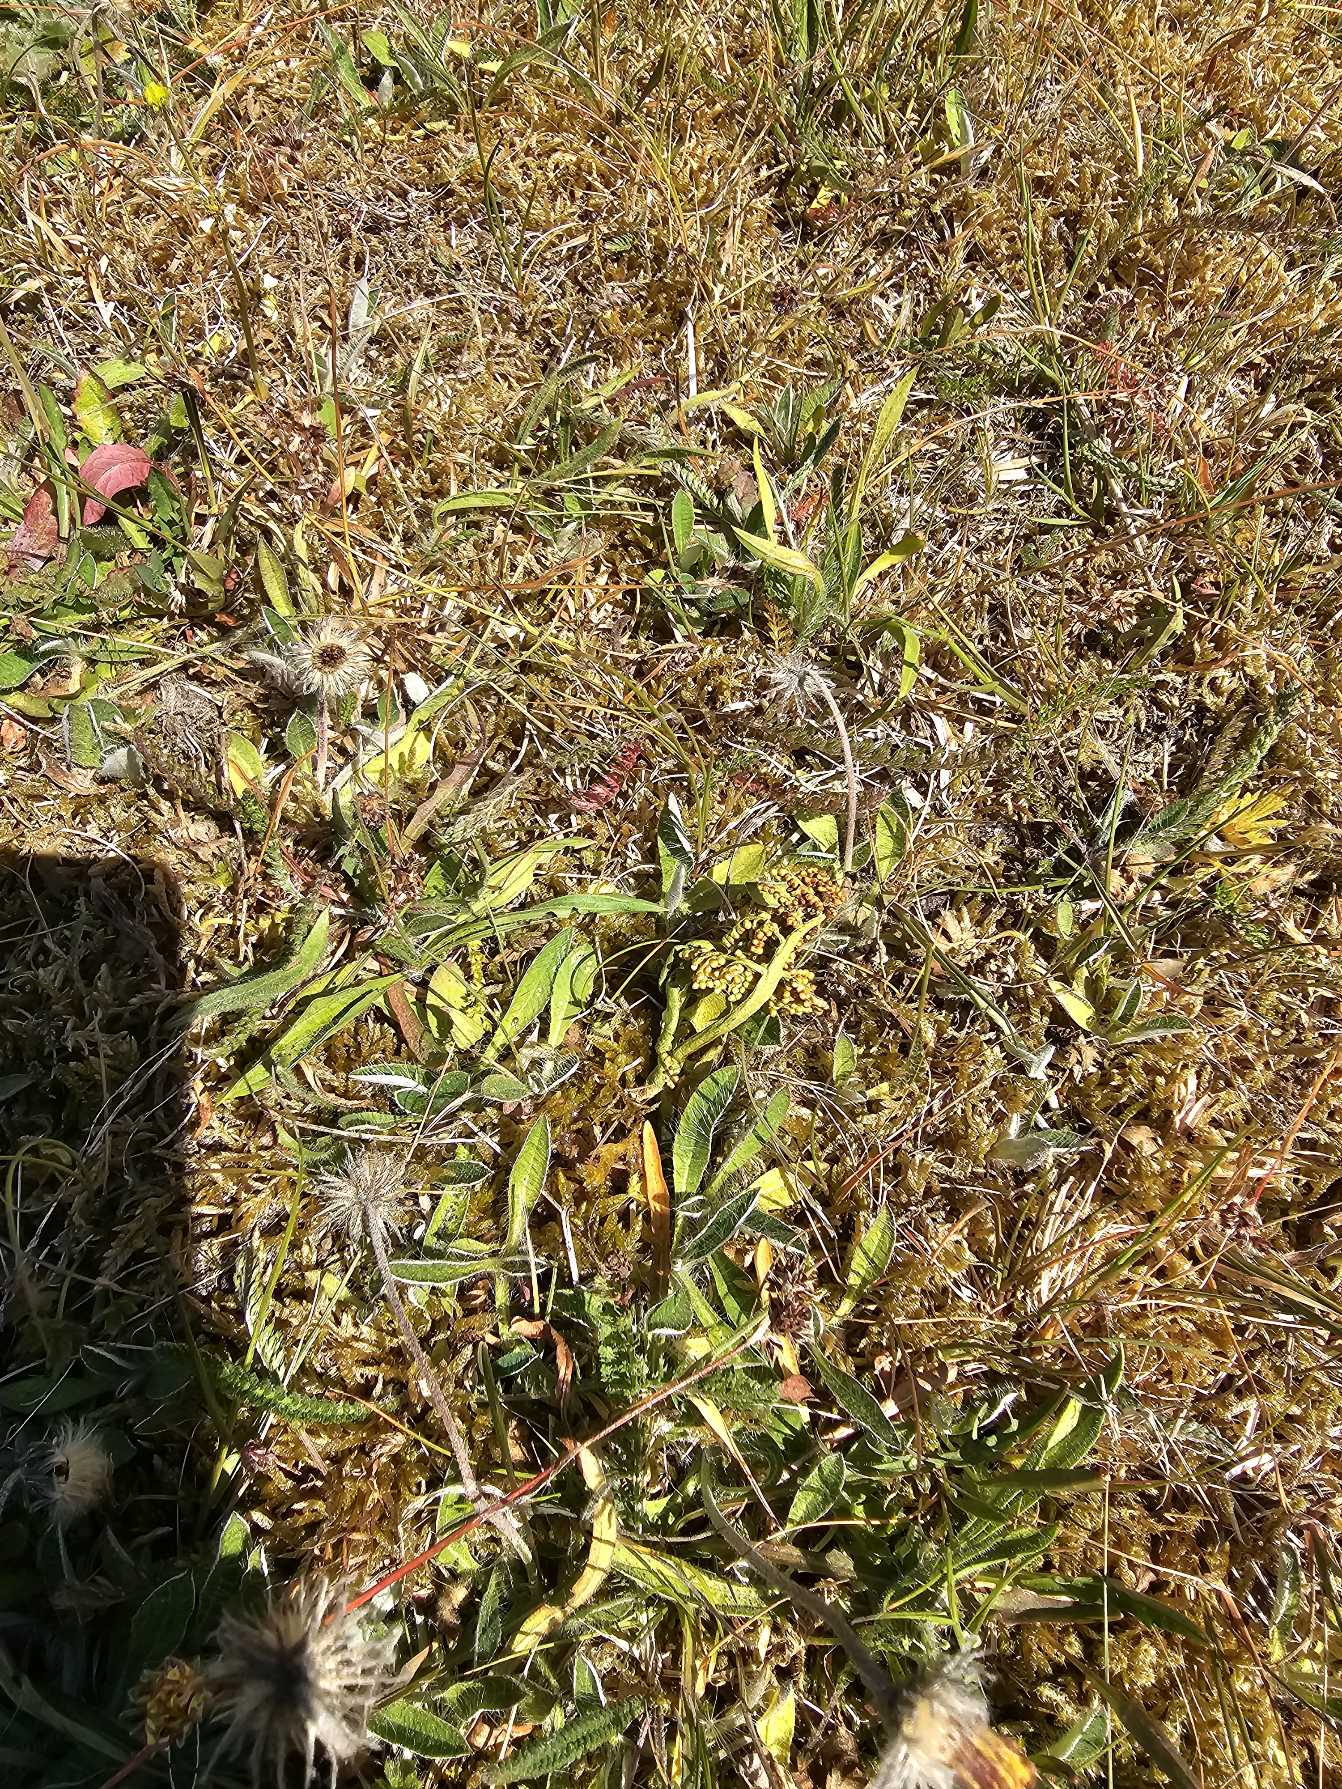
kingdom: Plantae
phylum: Tracheophyta
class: Polypodiopsida
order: Ophioglossales
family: Ophioglossaceae
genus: Botrychium
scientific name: Botrychium
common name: Månerudeslægten
